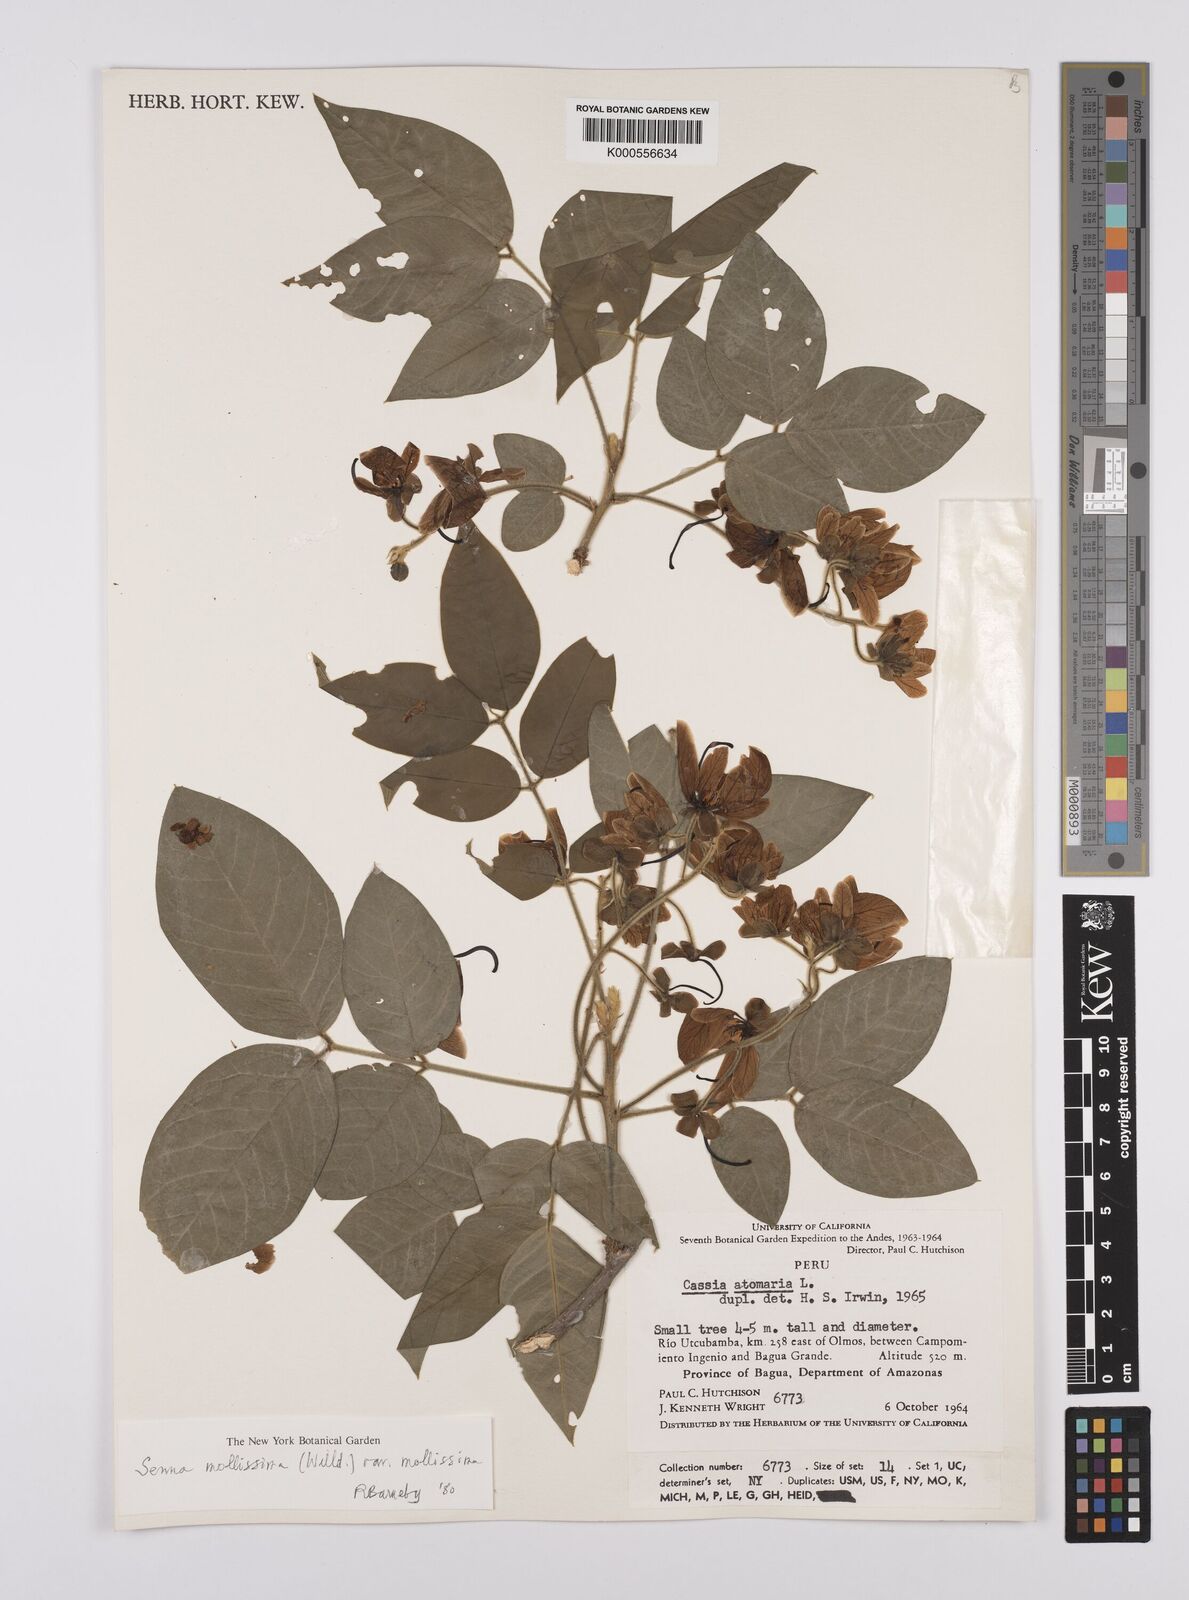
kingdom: Plantae
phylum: Tracheophyta
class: Magnoliopsida
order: Fabales
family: Fabaceae
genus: Senna
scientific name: Senna mollissima
